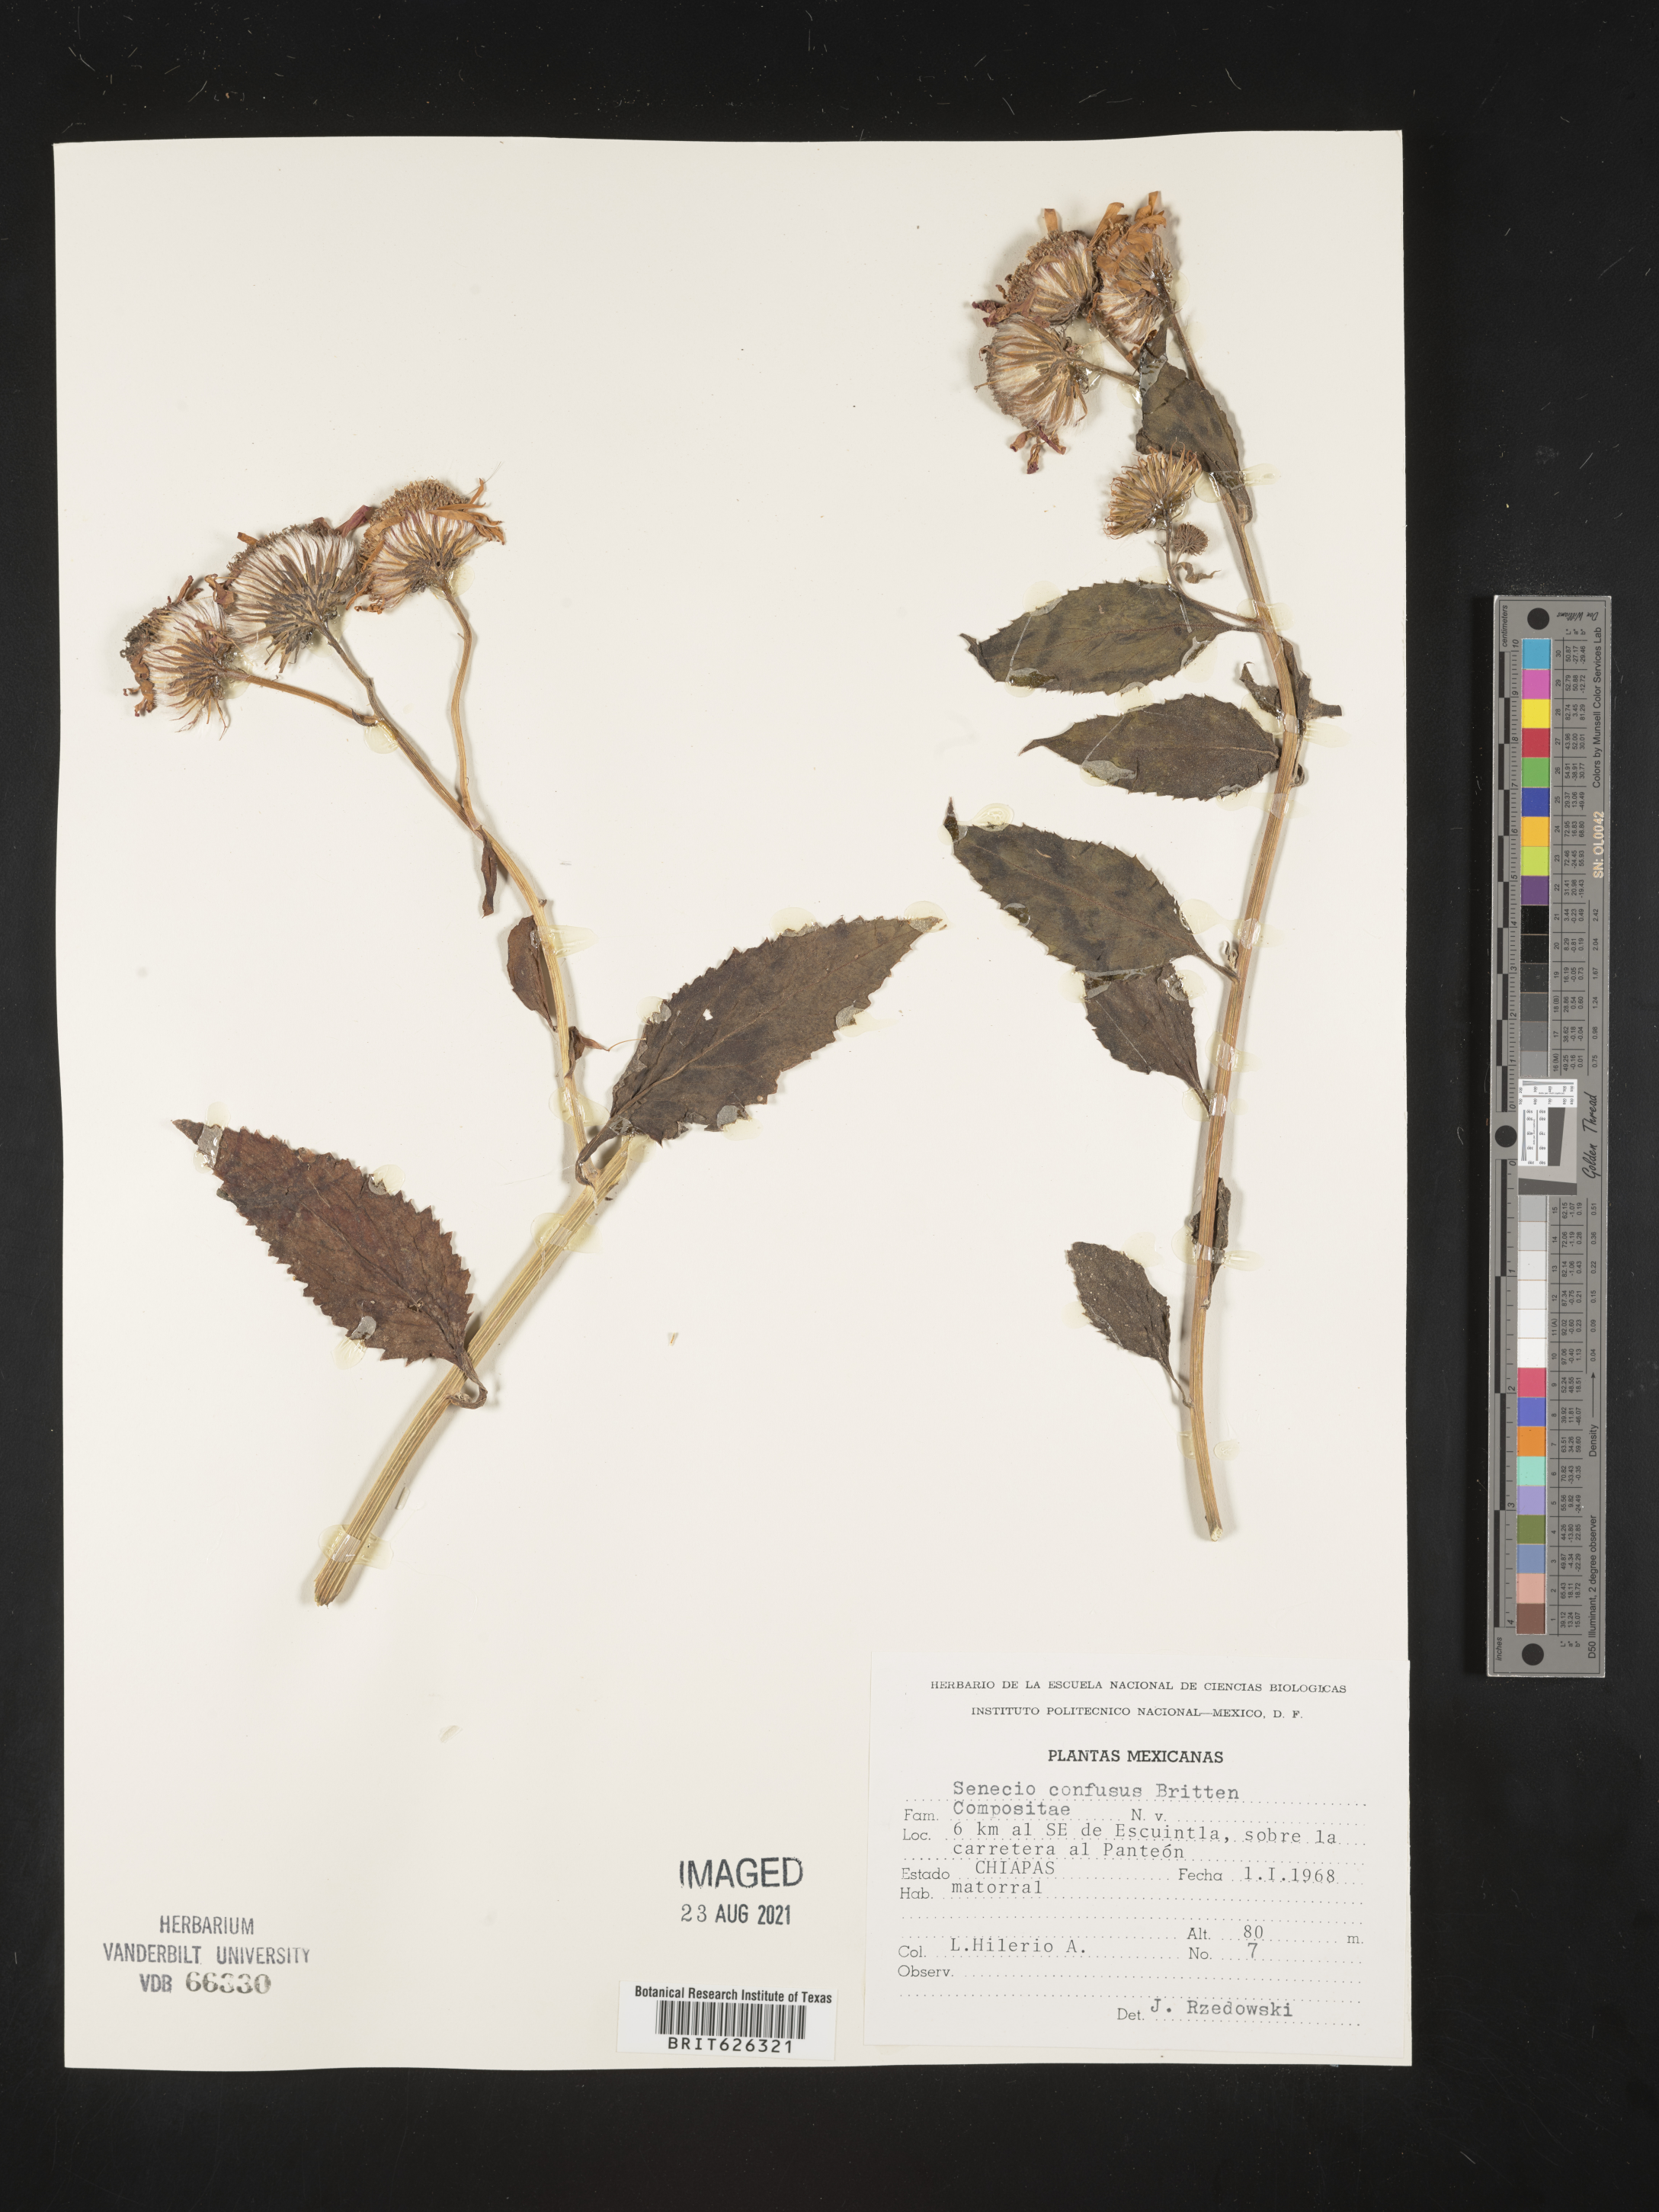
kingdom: Plantae
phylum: Tracheophyta
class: Magnoliopsida
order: Asterales
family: Asteraceae
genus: Senecio
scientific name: Senecio
